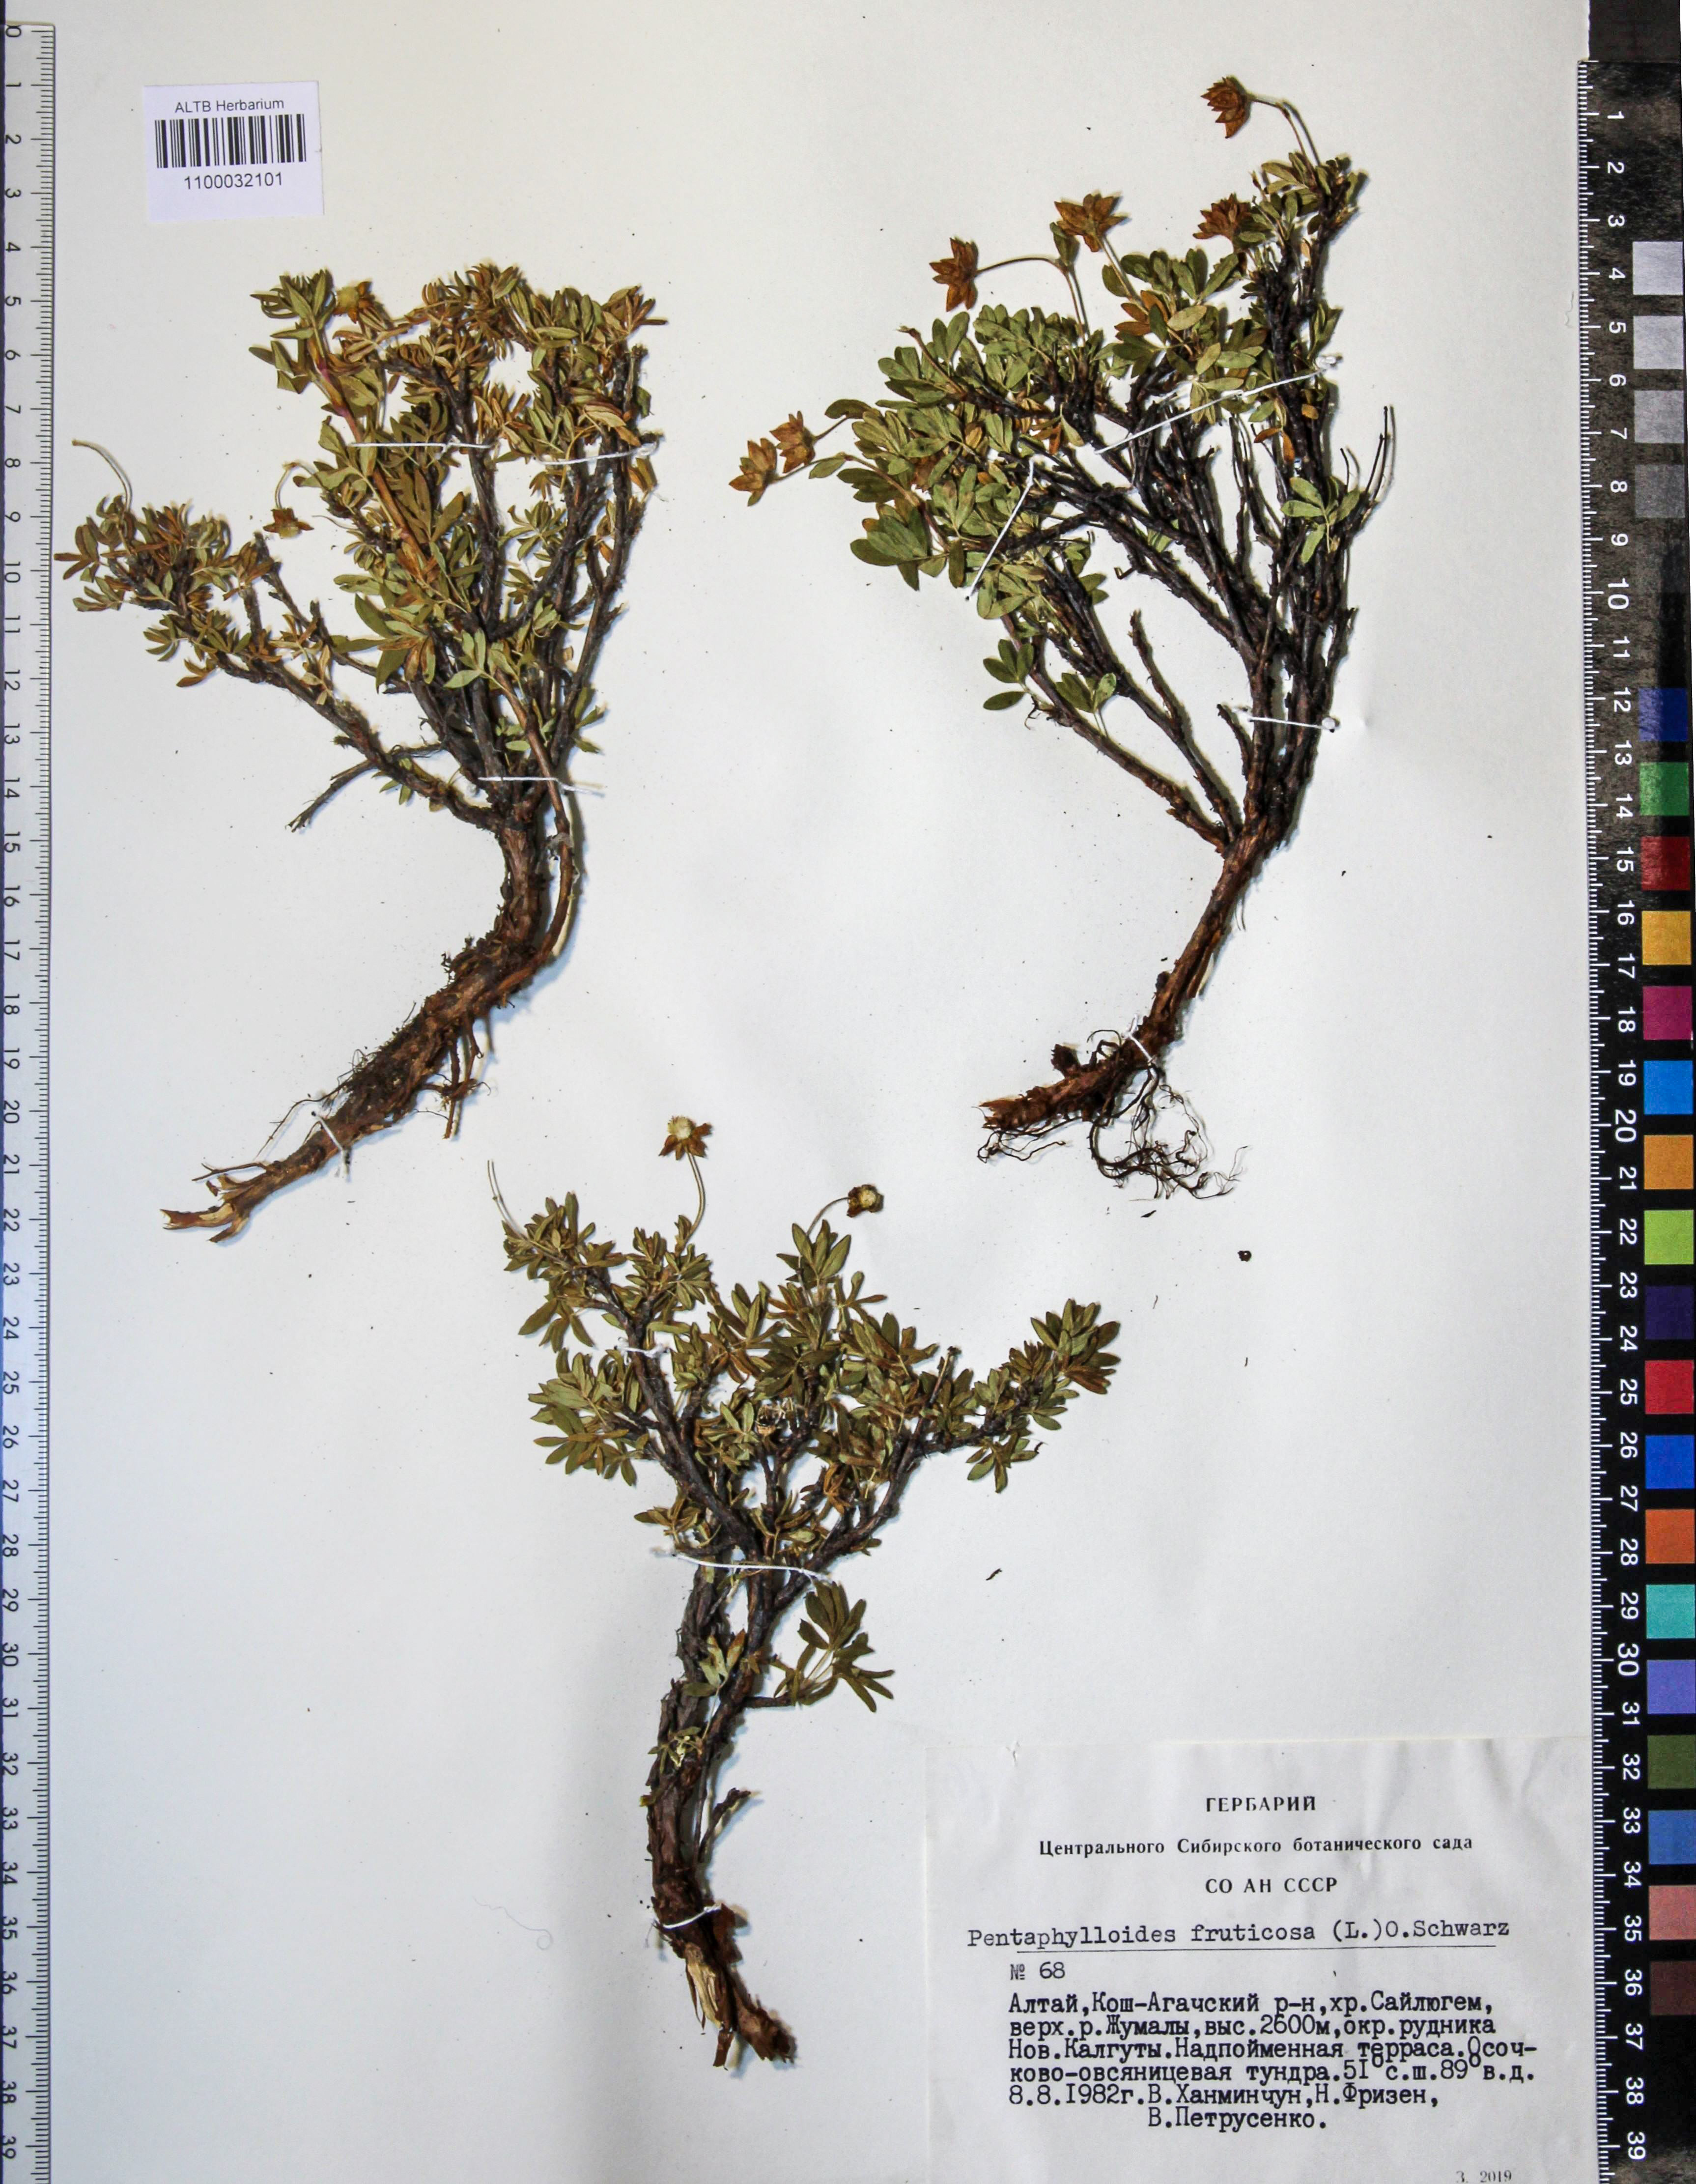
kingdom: Plantae
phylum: Tracheophyta
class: Magnoliopsida
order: Rosales
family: Rosaceae
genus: Dasiphora
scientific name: Dasiphora fruticosa
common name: Shrubby cinquefoil
